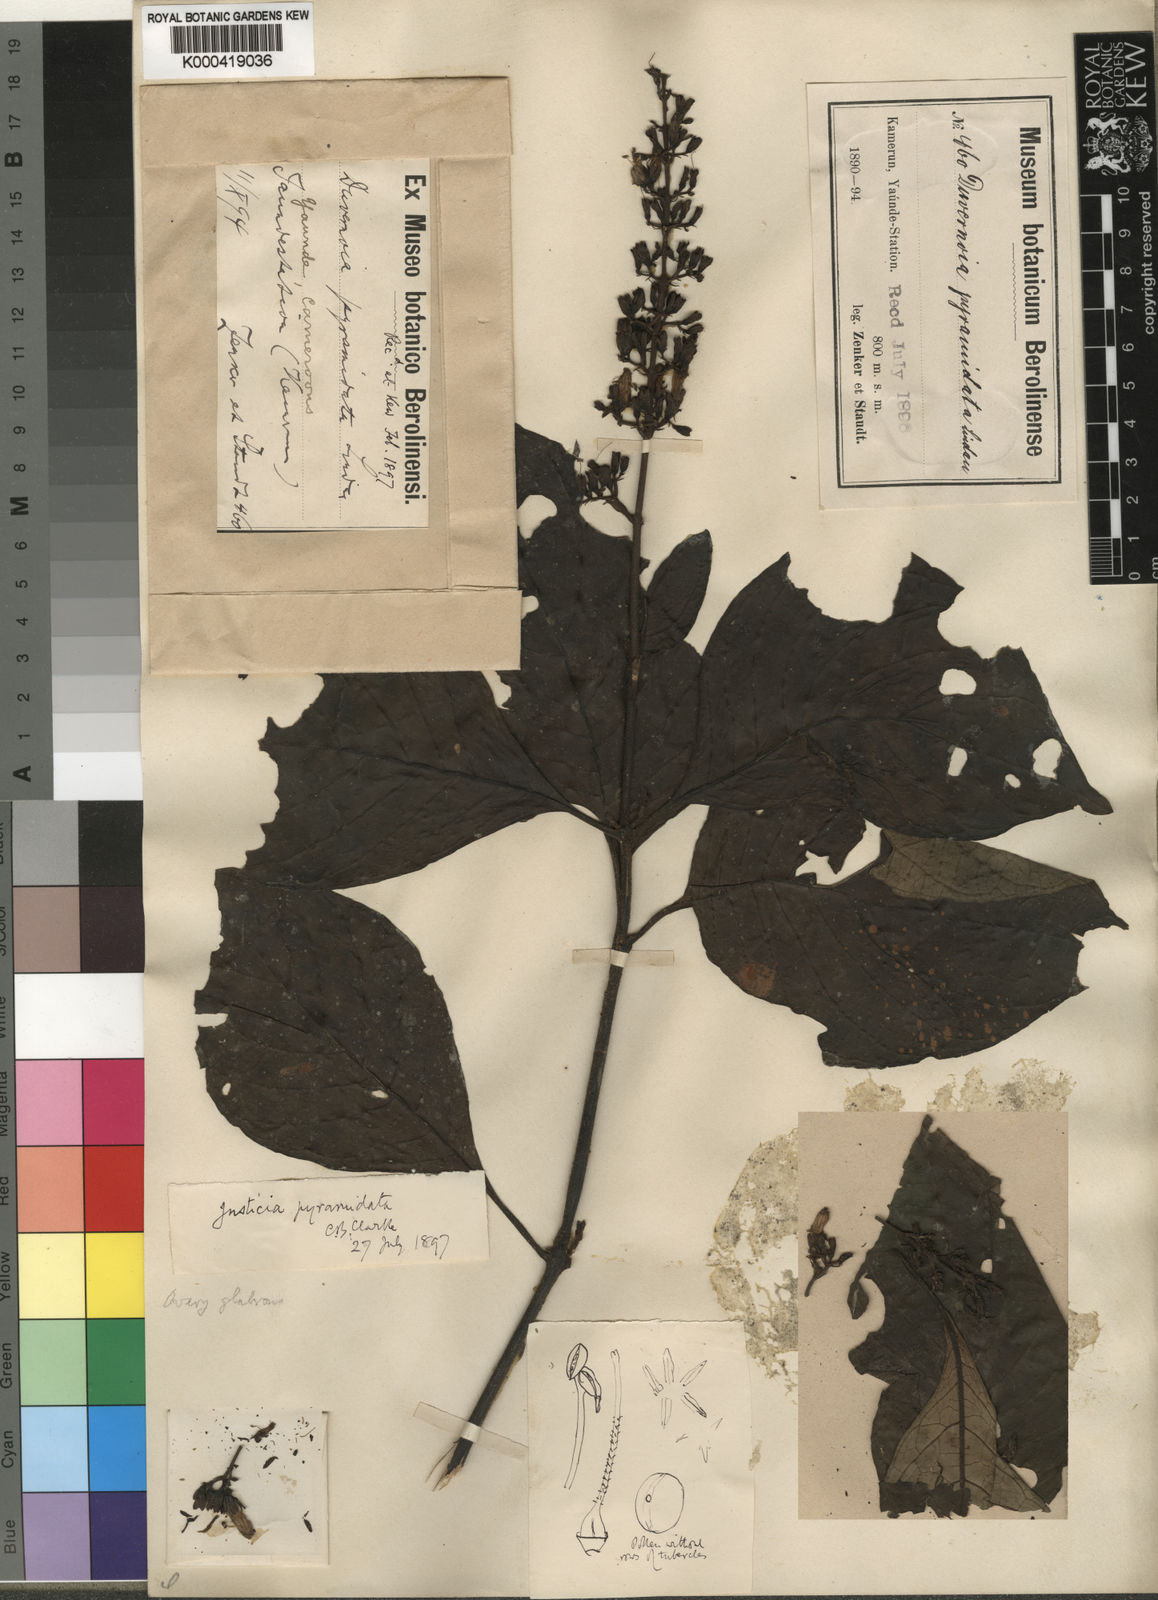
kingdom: Plantae
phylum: Tracheophyta
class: Magnoliopsida
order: Lamiales
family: Acanthaceae
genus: Justicia
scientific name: Justicia laxa
